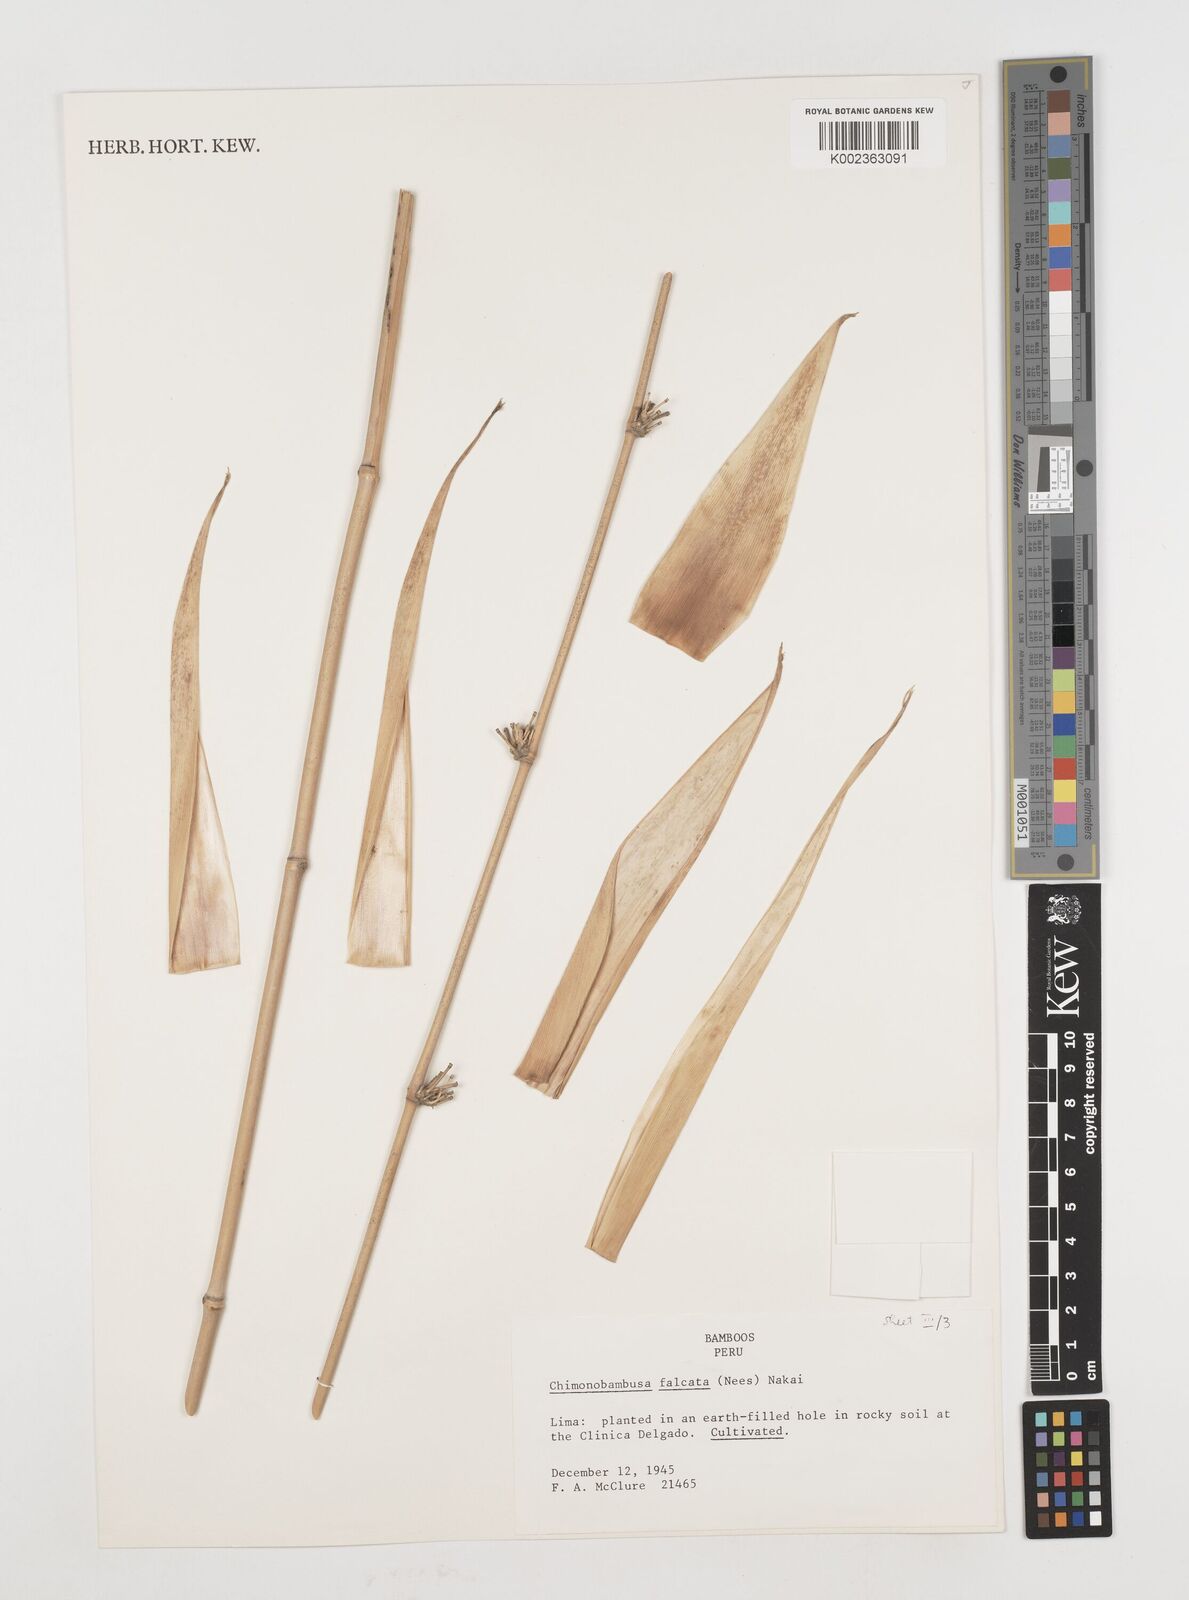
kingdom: Plantae
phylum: Tracheophyta
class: Liliopsida
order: Poales
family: Poaceae
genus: Drepanostachyum
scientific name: Drepanostachyum
